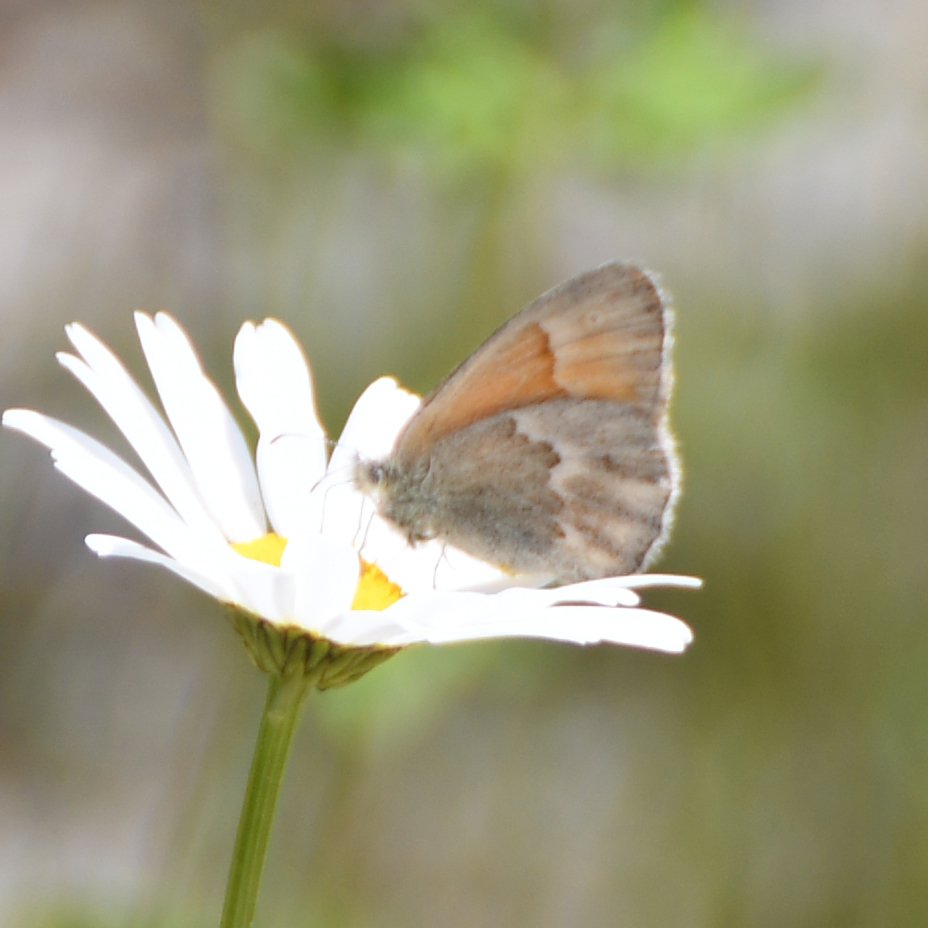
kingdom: Animalia
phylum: Arthropoda
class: Insecta
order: Lepidoptera
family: Nymphalidae
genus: Coenonympha
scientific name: Coenonympha tullia
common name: Large Heath
